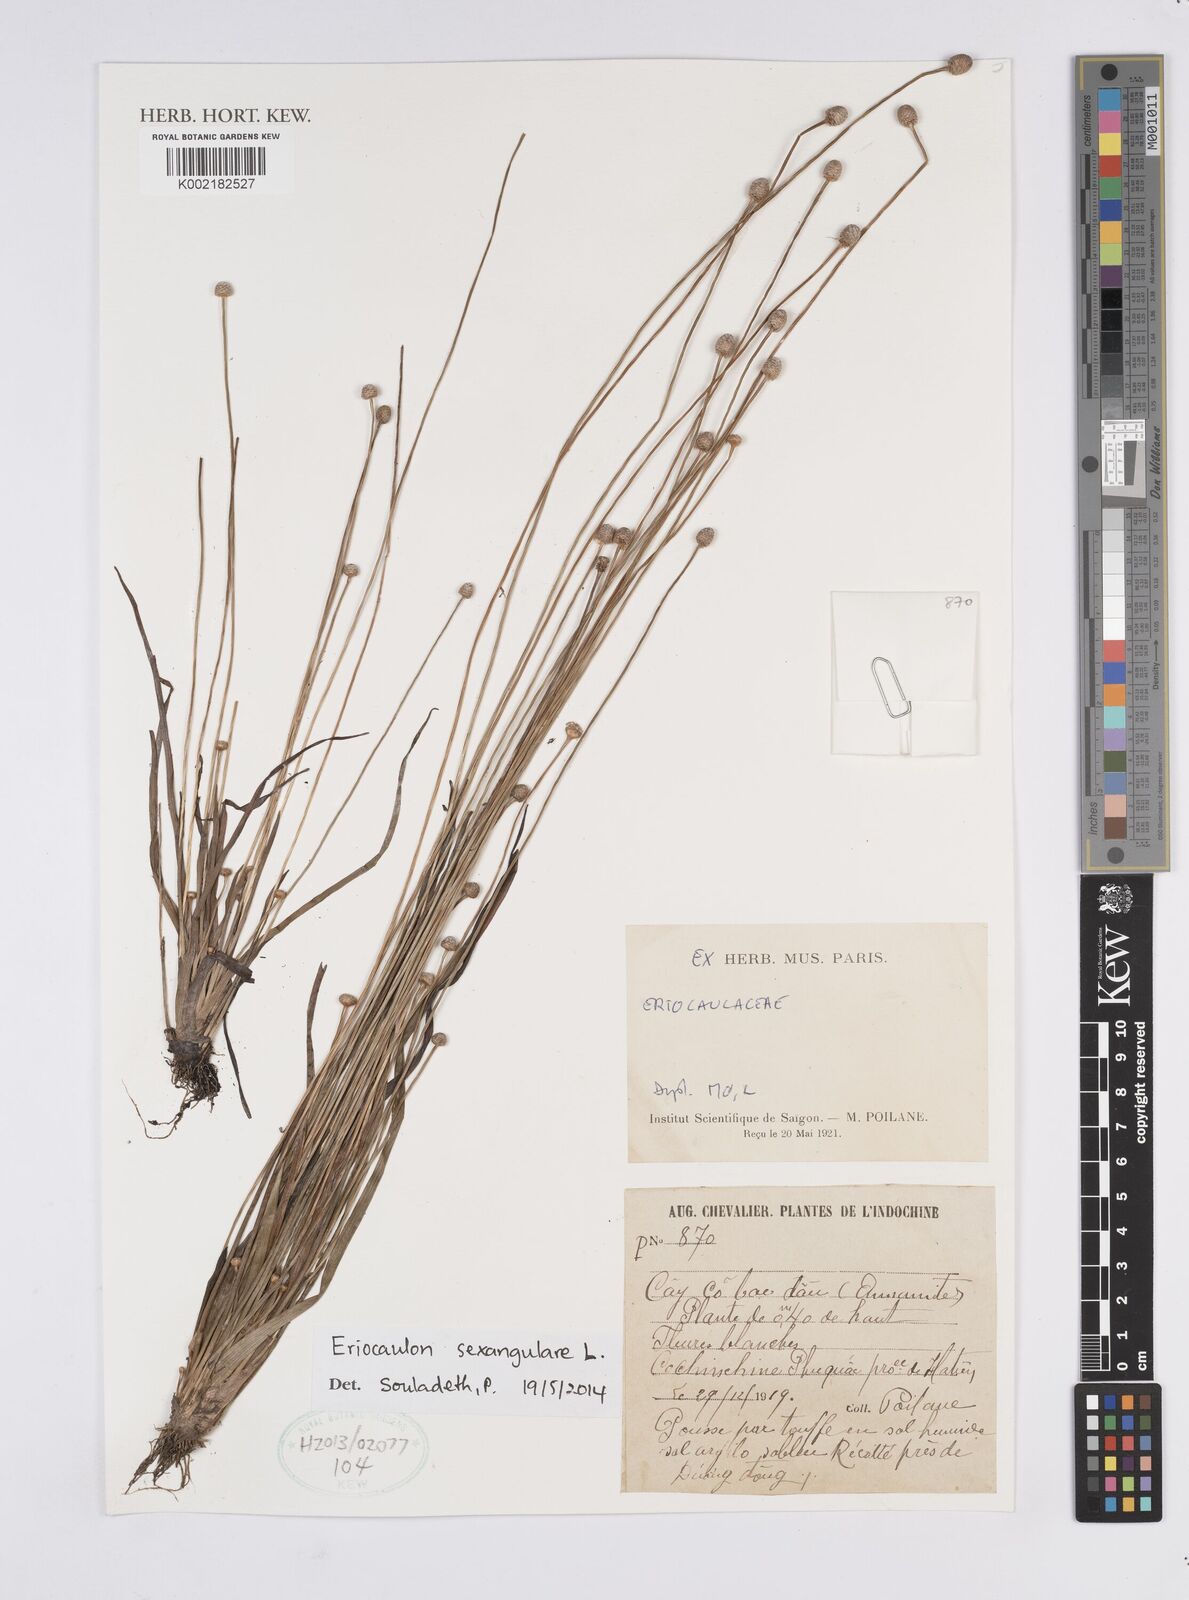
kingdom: Plantae
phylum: Tracheophyta
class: Liliopsida
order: Poales
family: Eriocaulaceae
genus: Eriocaulon
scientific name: Eriocaulon sexangulare
